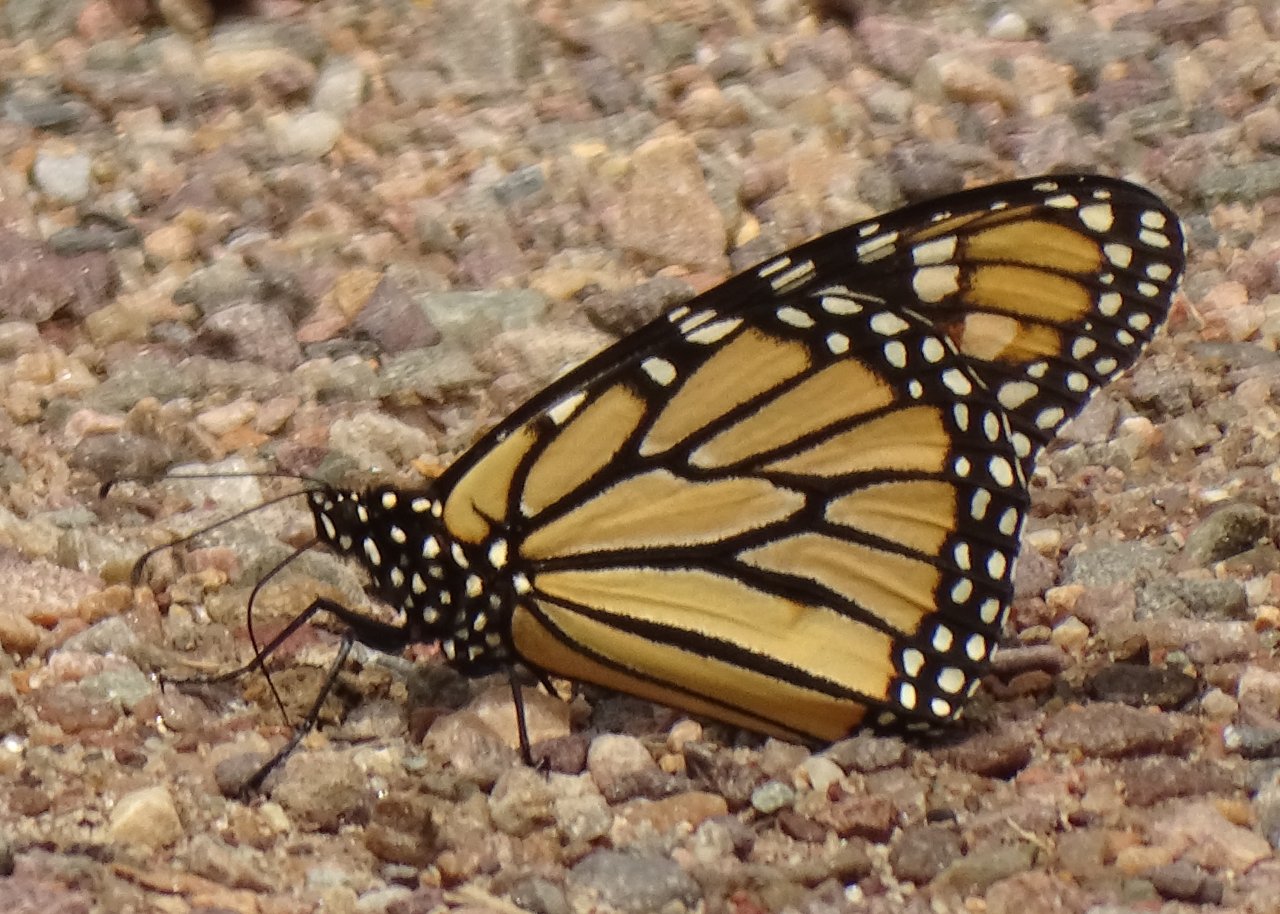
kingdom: Animalia
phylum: Arthropoda
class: Insecta
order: Lepidoptera
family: Nymphalidae
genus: Danaus
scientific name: Danaus plexippus
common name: Monarch
